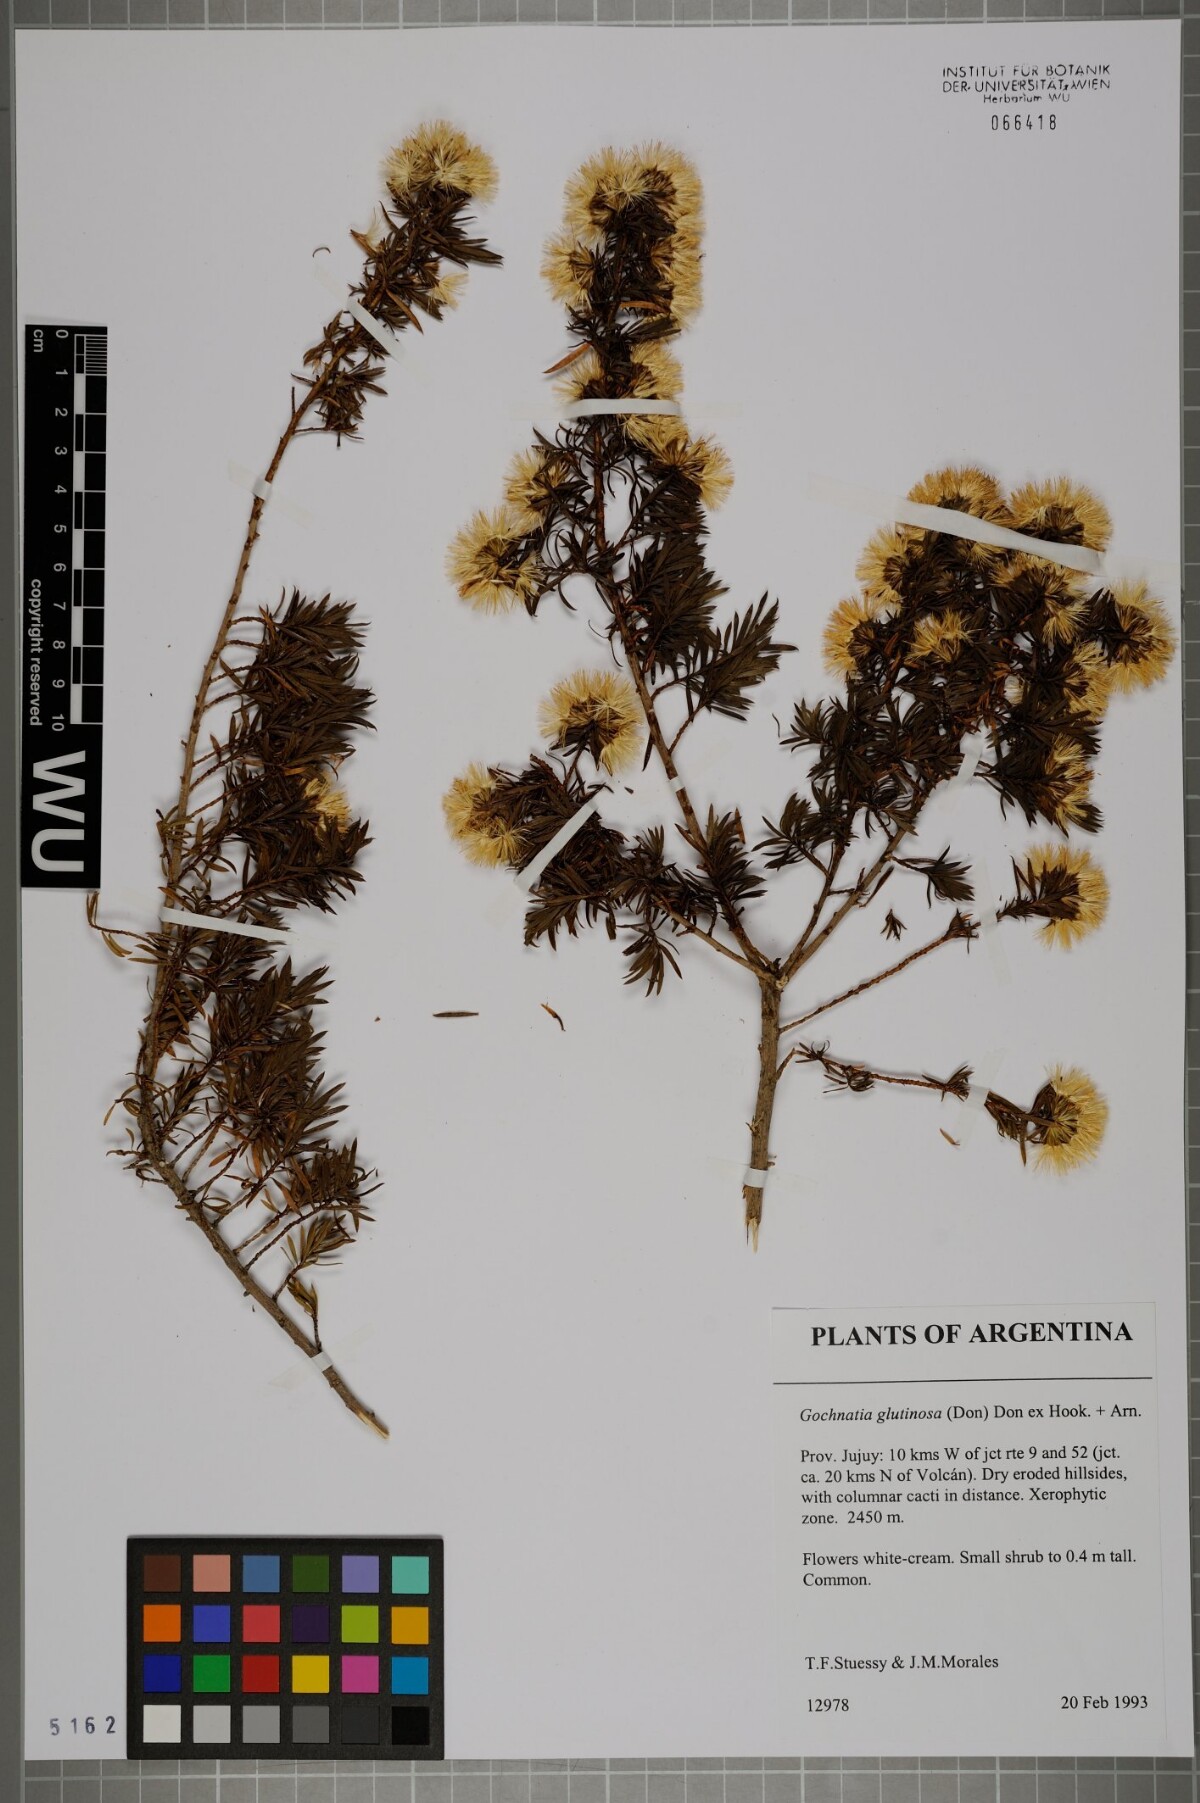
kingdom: Plantae
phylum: Tracheophyta
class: Magnoliopsida
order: Asterales
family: Asteraceae
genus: Gochnatia
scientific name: Gochnatia glutinosa
